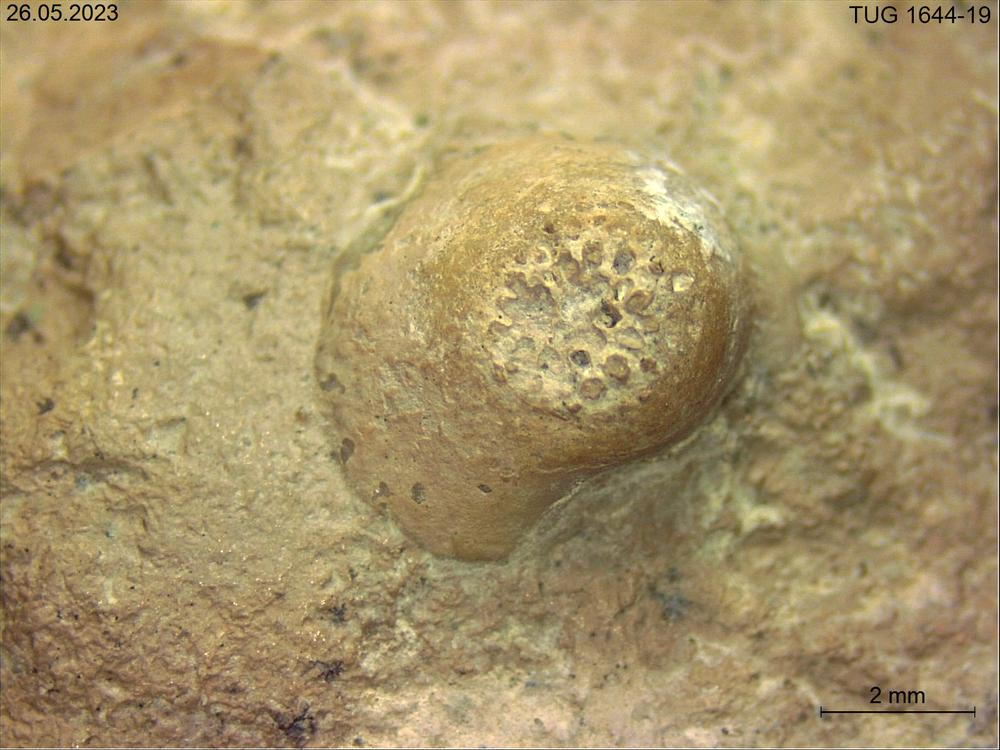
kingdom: Animalia
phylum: Bryozoa
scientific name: Bryozoa
